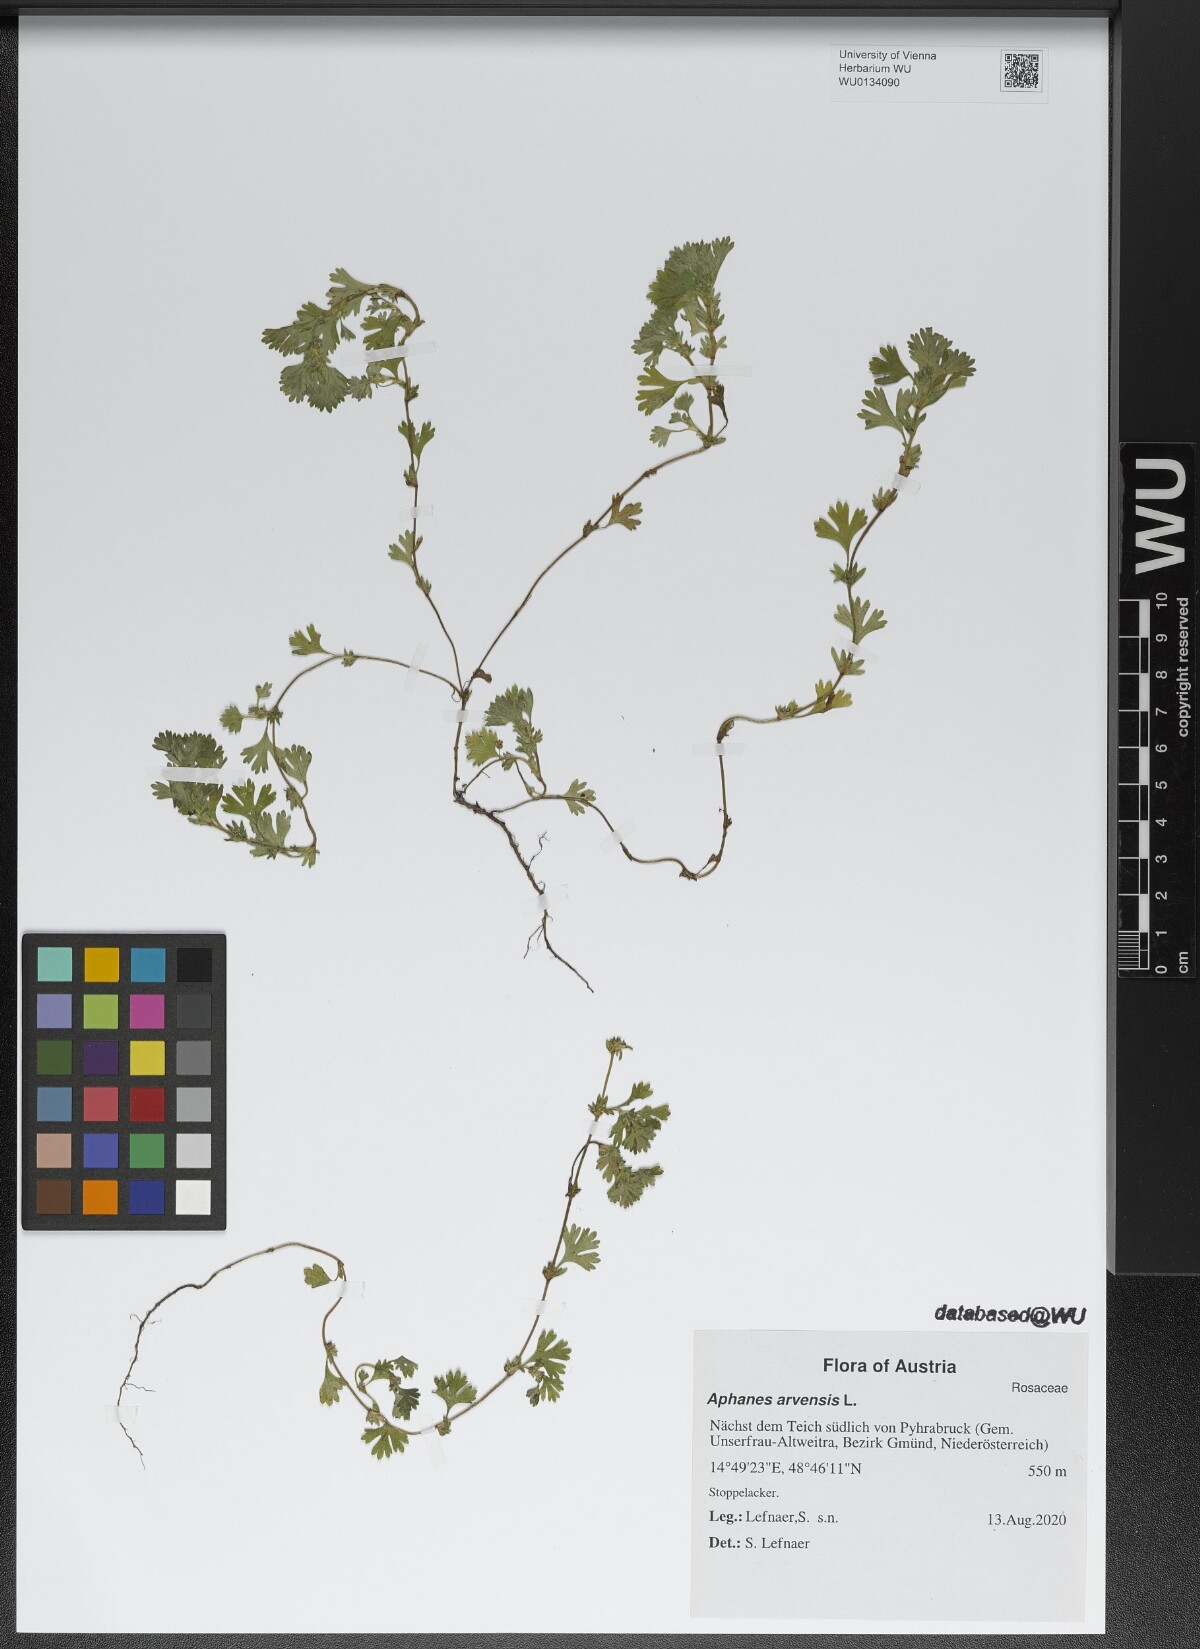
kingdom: Plantae
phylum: Tracheophyta
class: Magnoliopsida
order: Rosales
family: Rosaceae
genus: Aphanes
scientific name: Aphanes arvensis
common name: Parsley-piert
